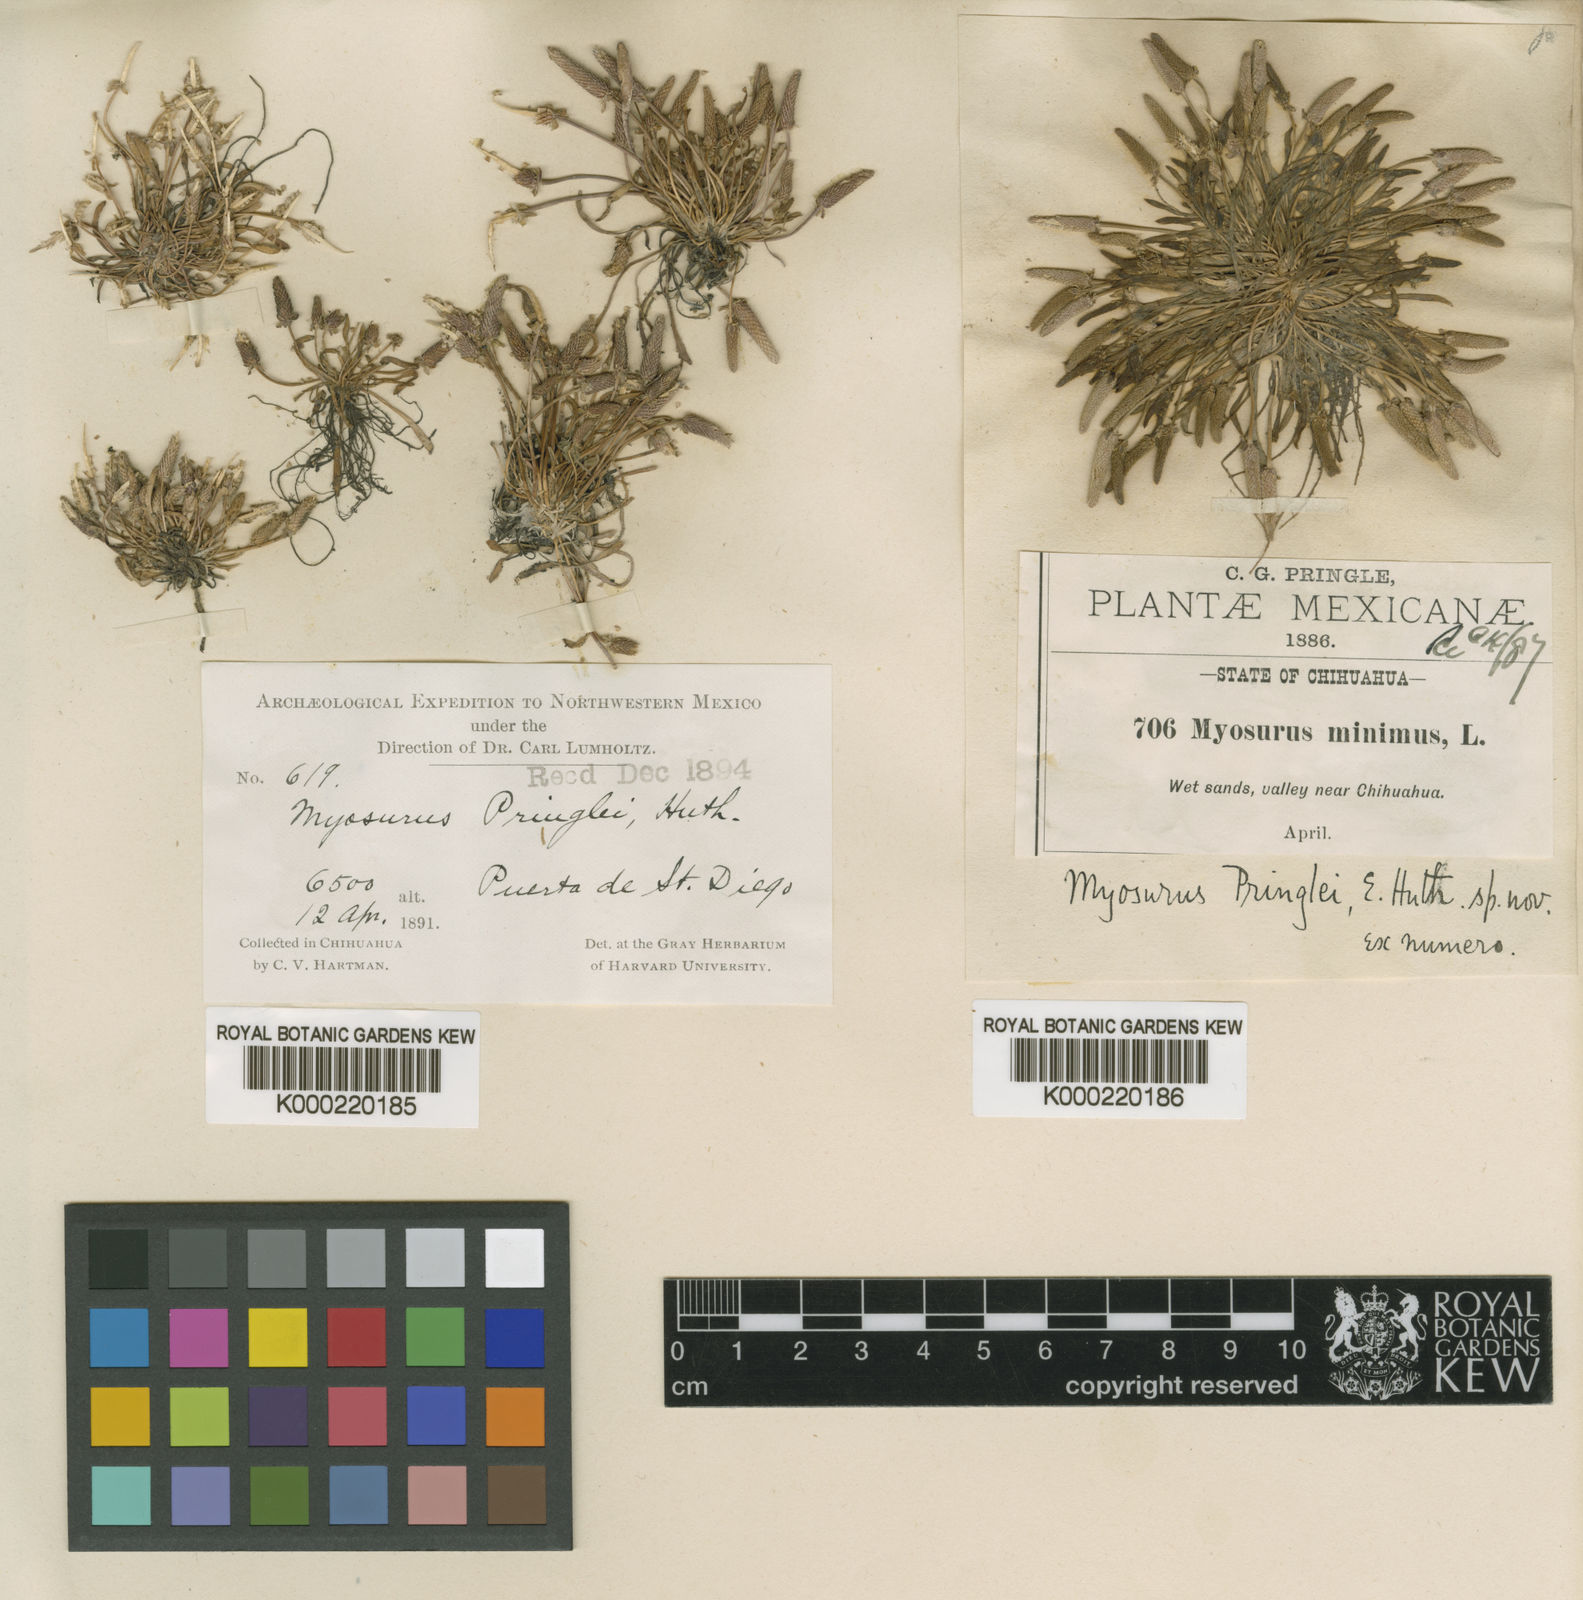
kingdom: Plantae
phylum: Tracheophyta
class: Magnoliopsida
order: Ranunculales
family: Ranunculaceae
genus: Myosurus
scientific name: Myosurus minimus
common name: Mousetail
